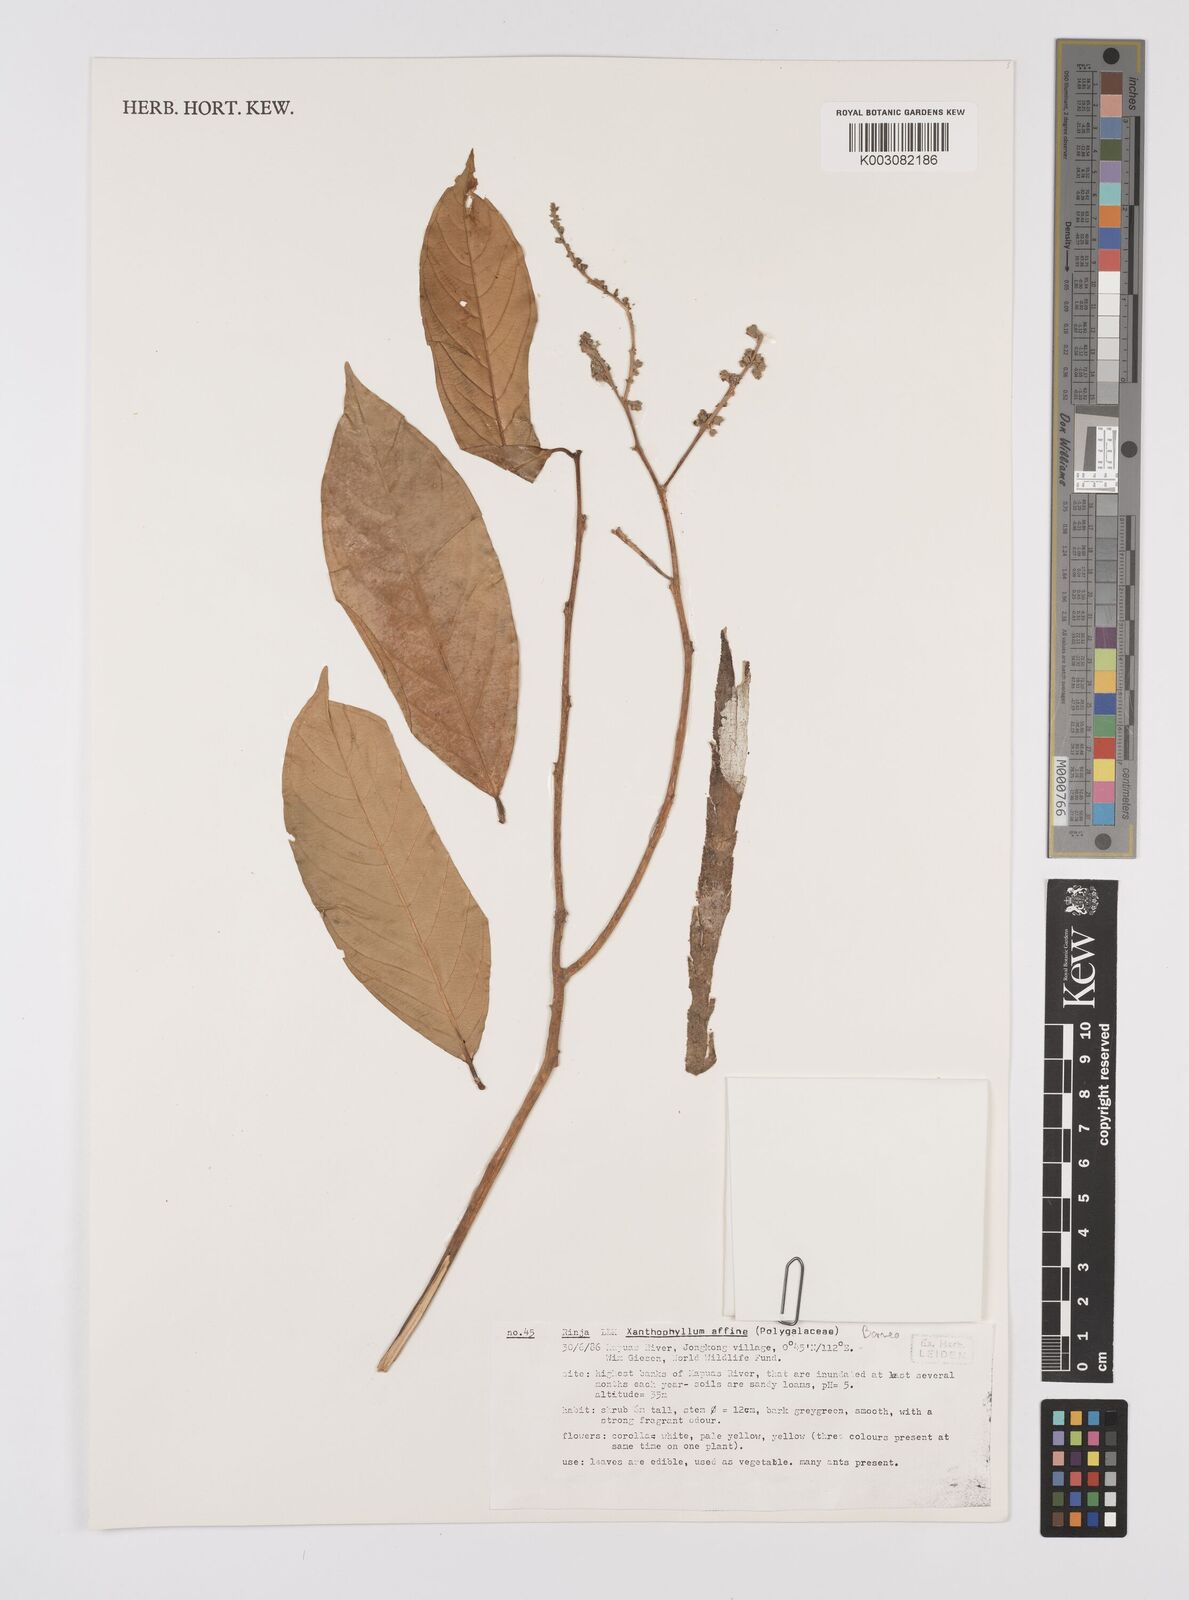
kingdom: Plantae
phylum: Tracheophyta
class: Magnoliopsida
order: Fabales
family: Polygalaceae
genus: Xanthophyllum
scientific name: Xanthophyllum flavescens
